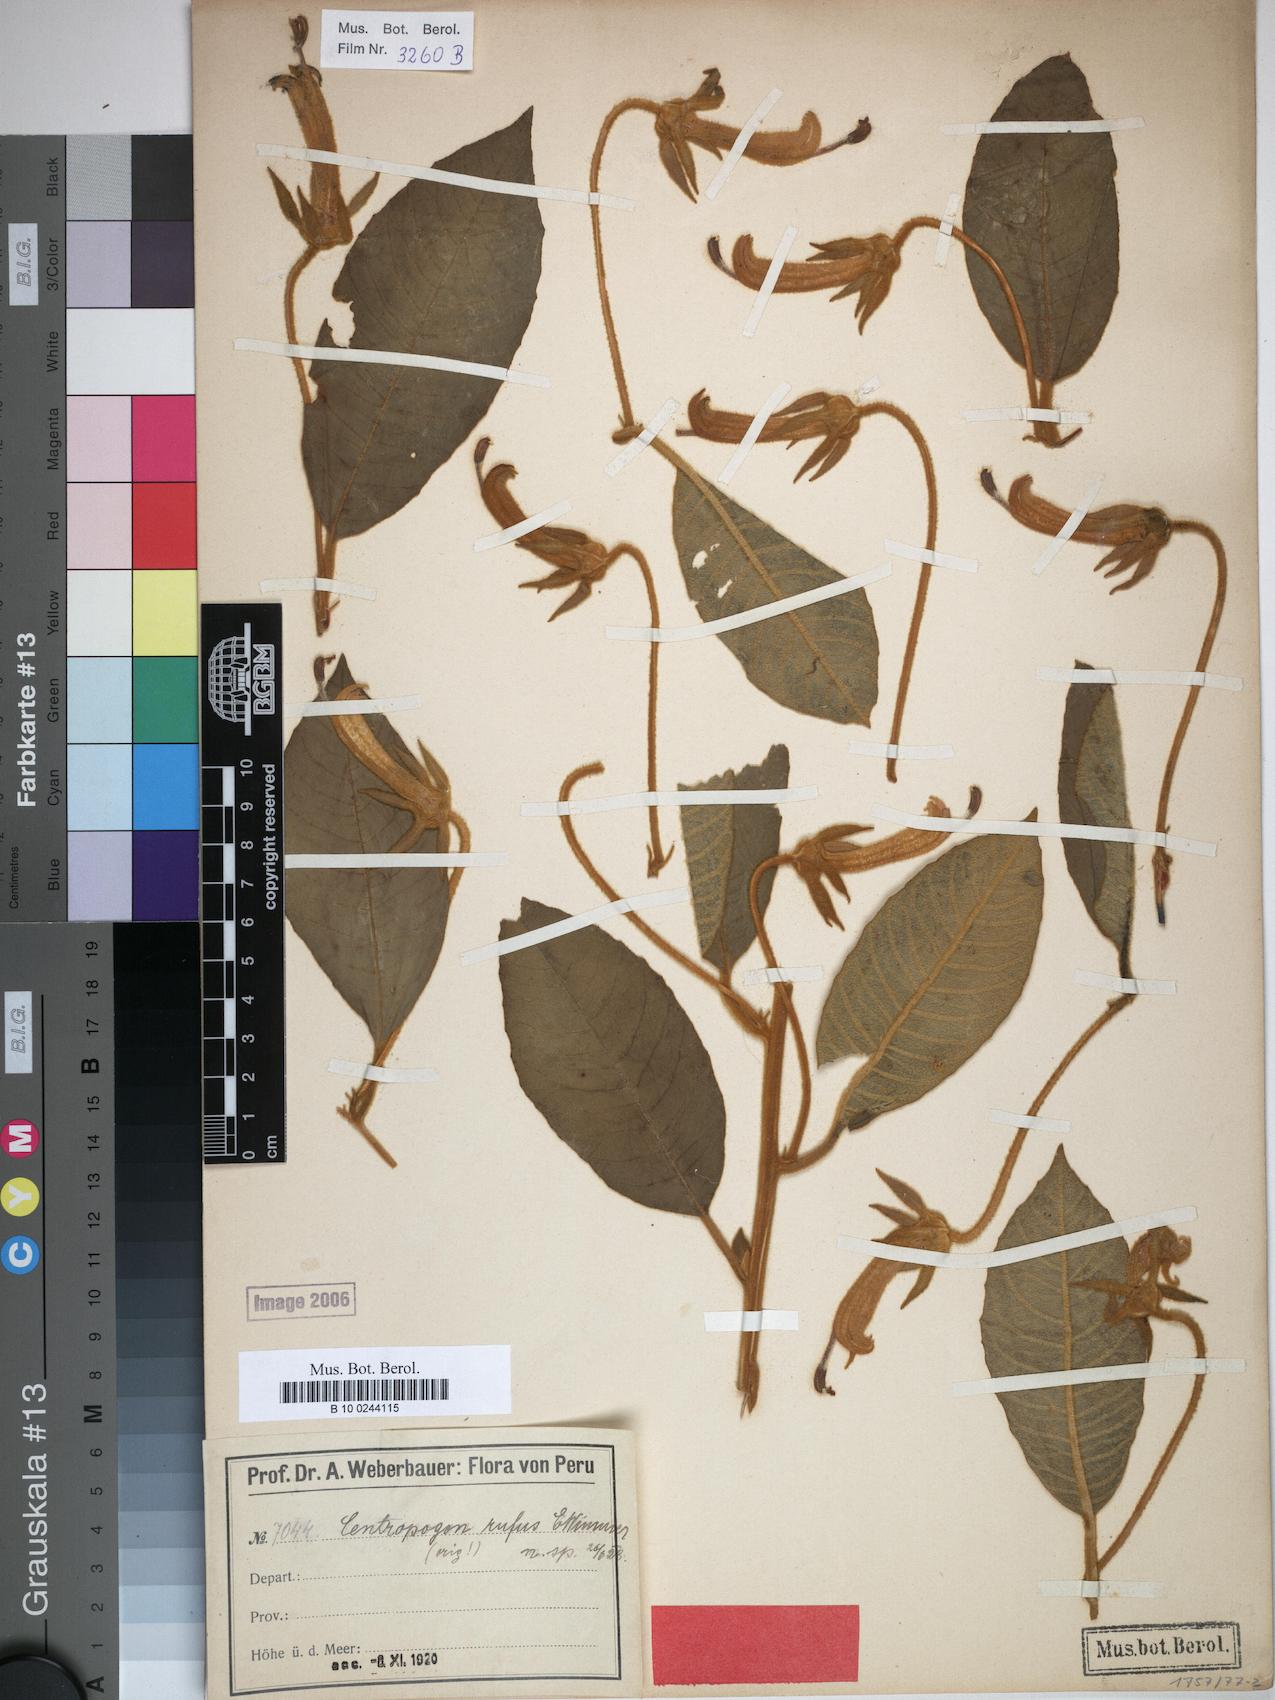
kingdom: Plantae
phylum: Tracheophyta
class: Magnoliopsida
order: Asterales
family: Campanulaceae
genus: Centropogon
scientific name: Centropogon rufus
